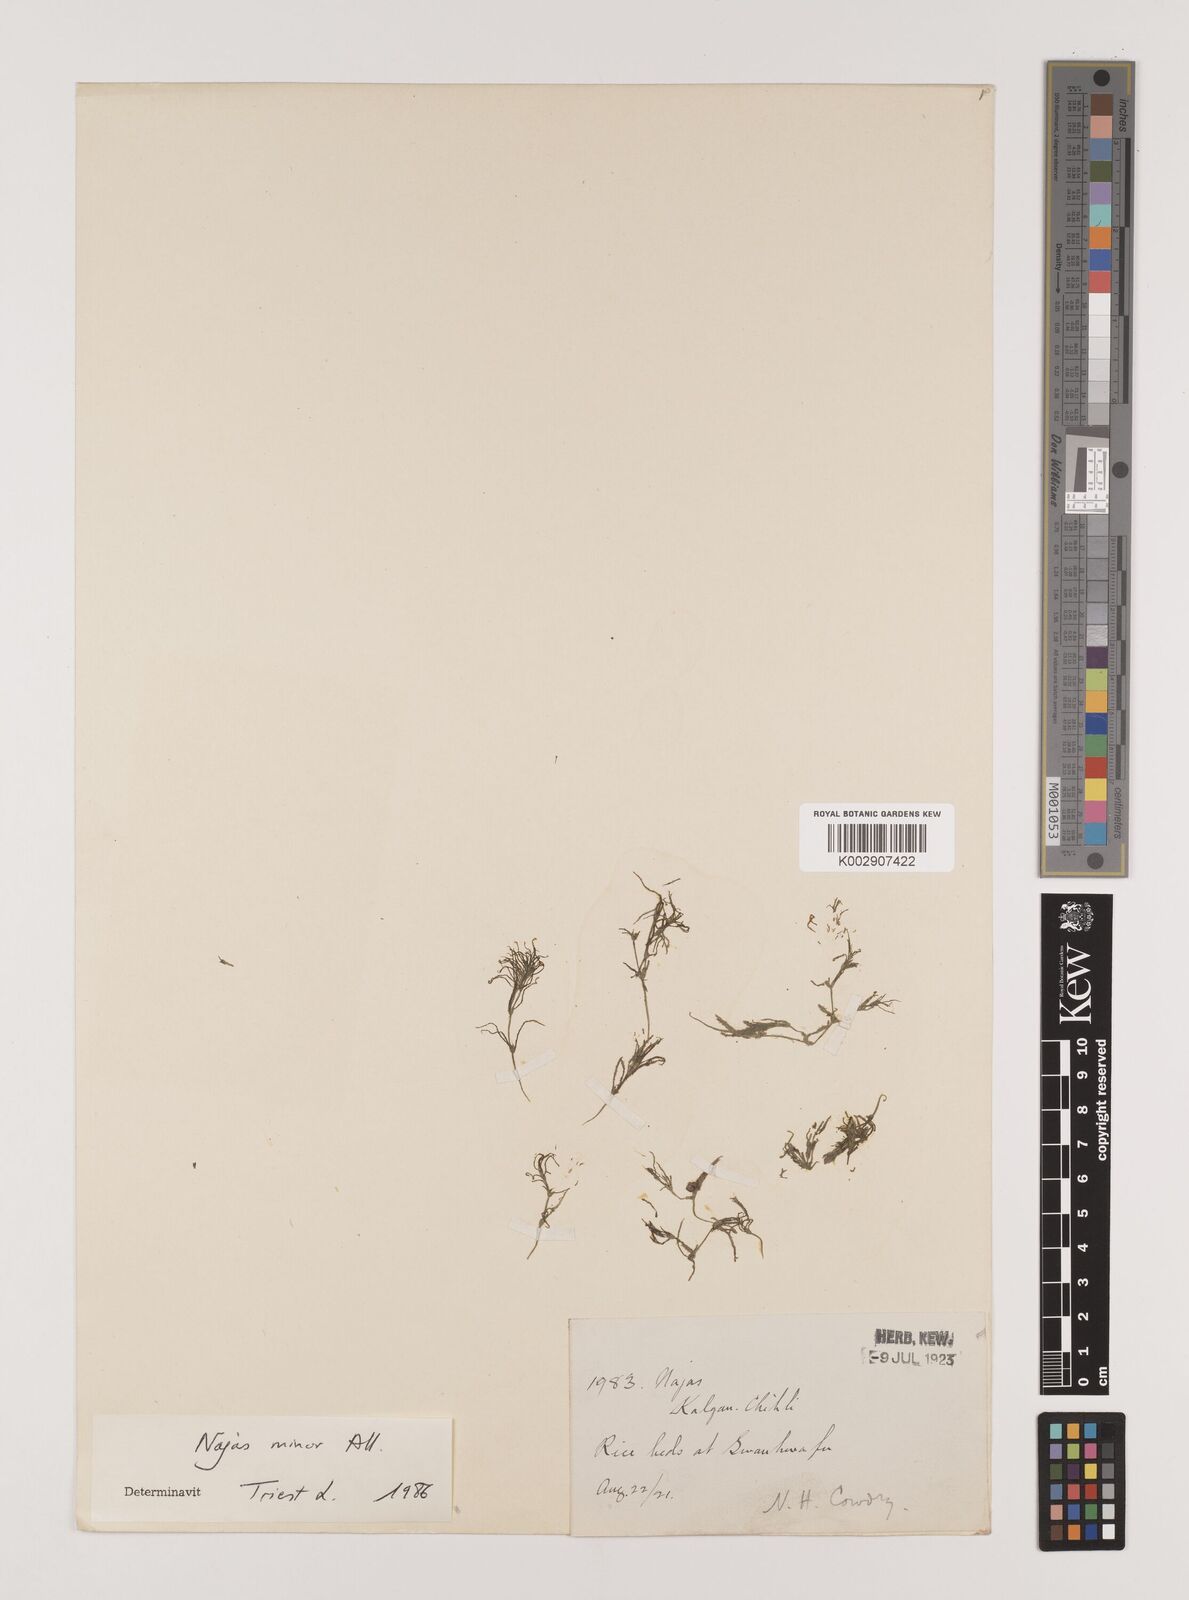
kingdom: Plantae
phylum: Tracheophyta
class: Liliopsida
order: Alismatales
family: Hydrocharitaceae
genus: Najas
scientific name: Najas minor
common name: Brittle naiad
